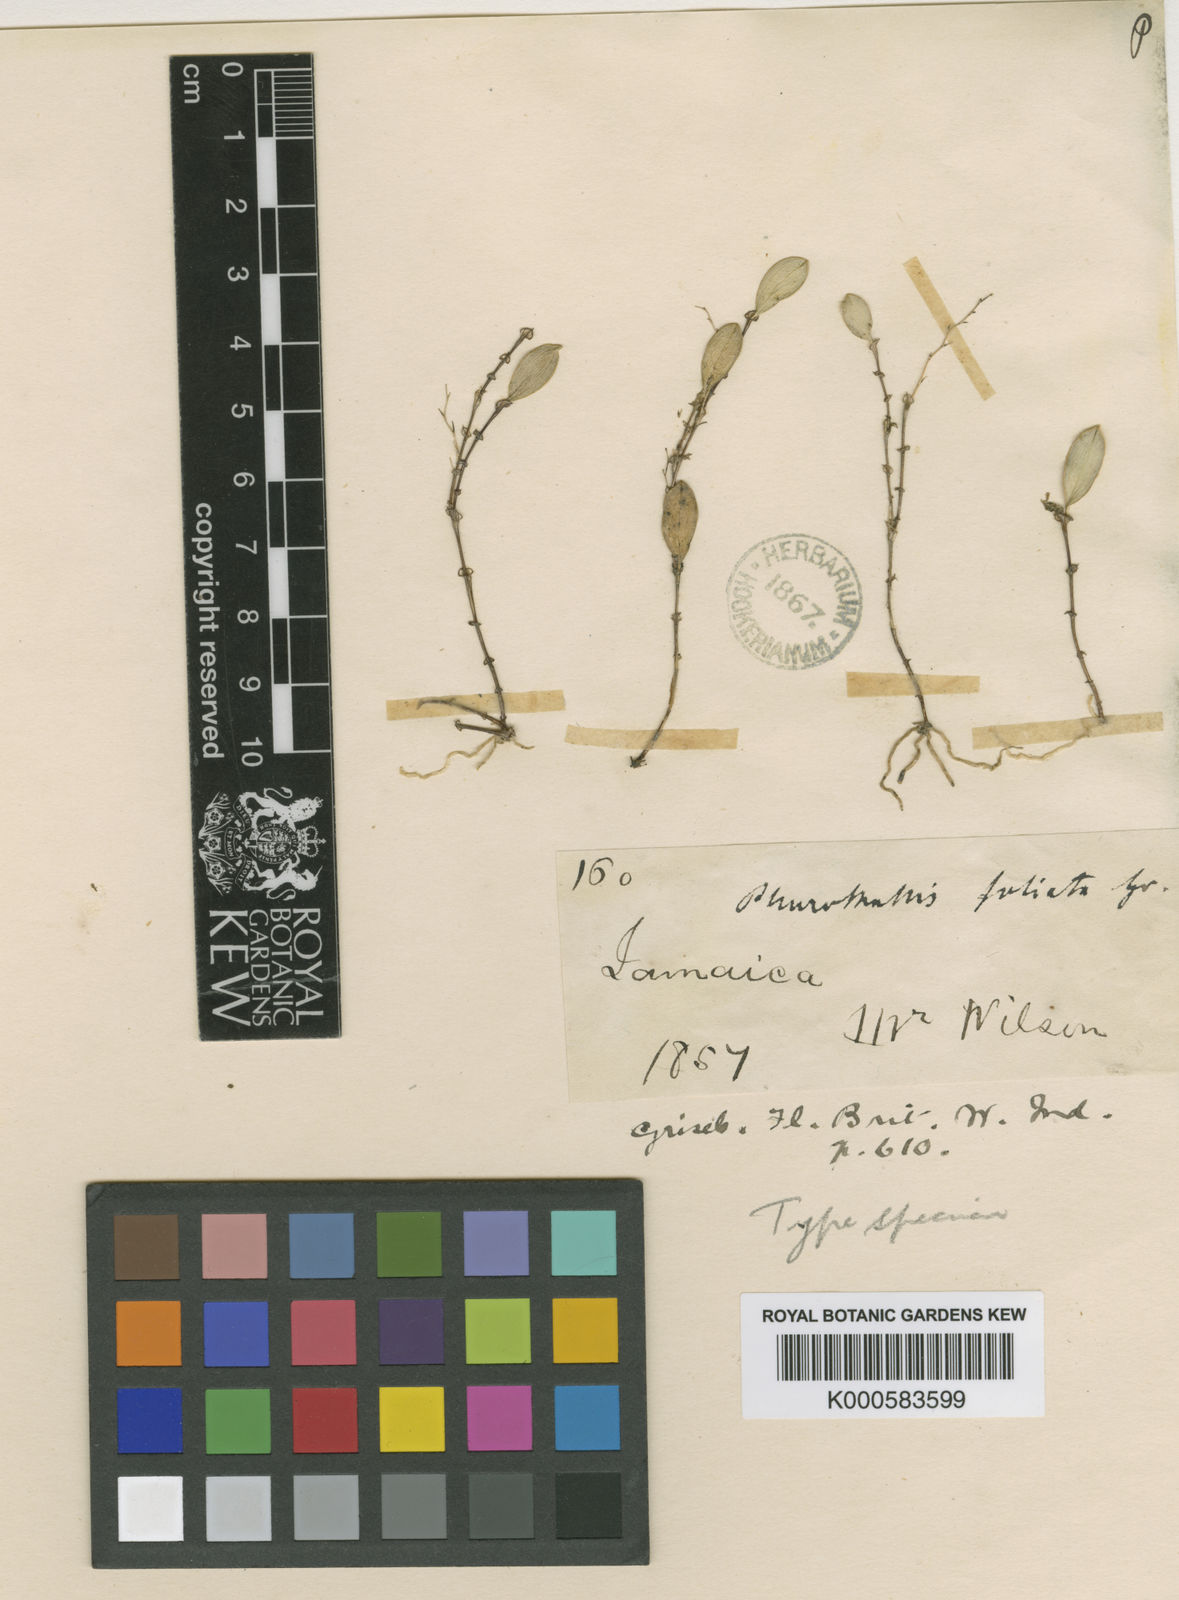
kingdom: Plantae
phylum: Tracheophyta
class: Liliopsida
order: Asparagales
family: Orchidaceae
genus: Trichosalpinx
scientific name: Trichosalpinx dura
